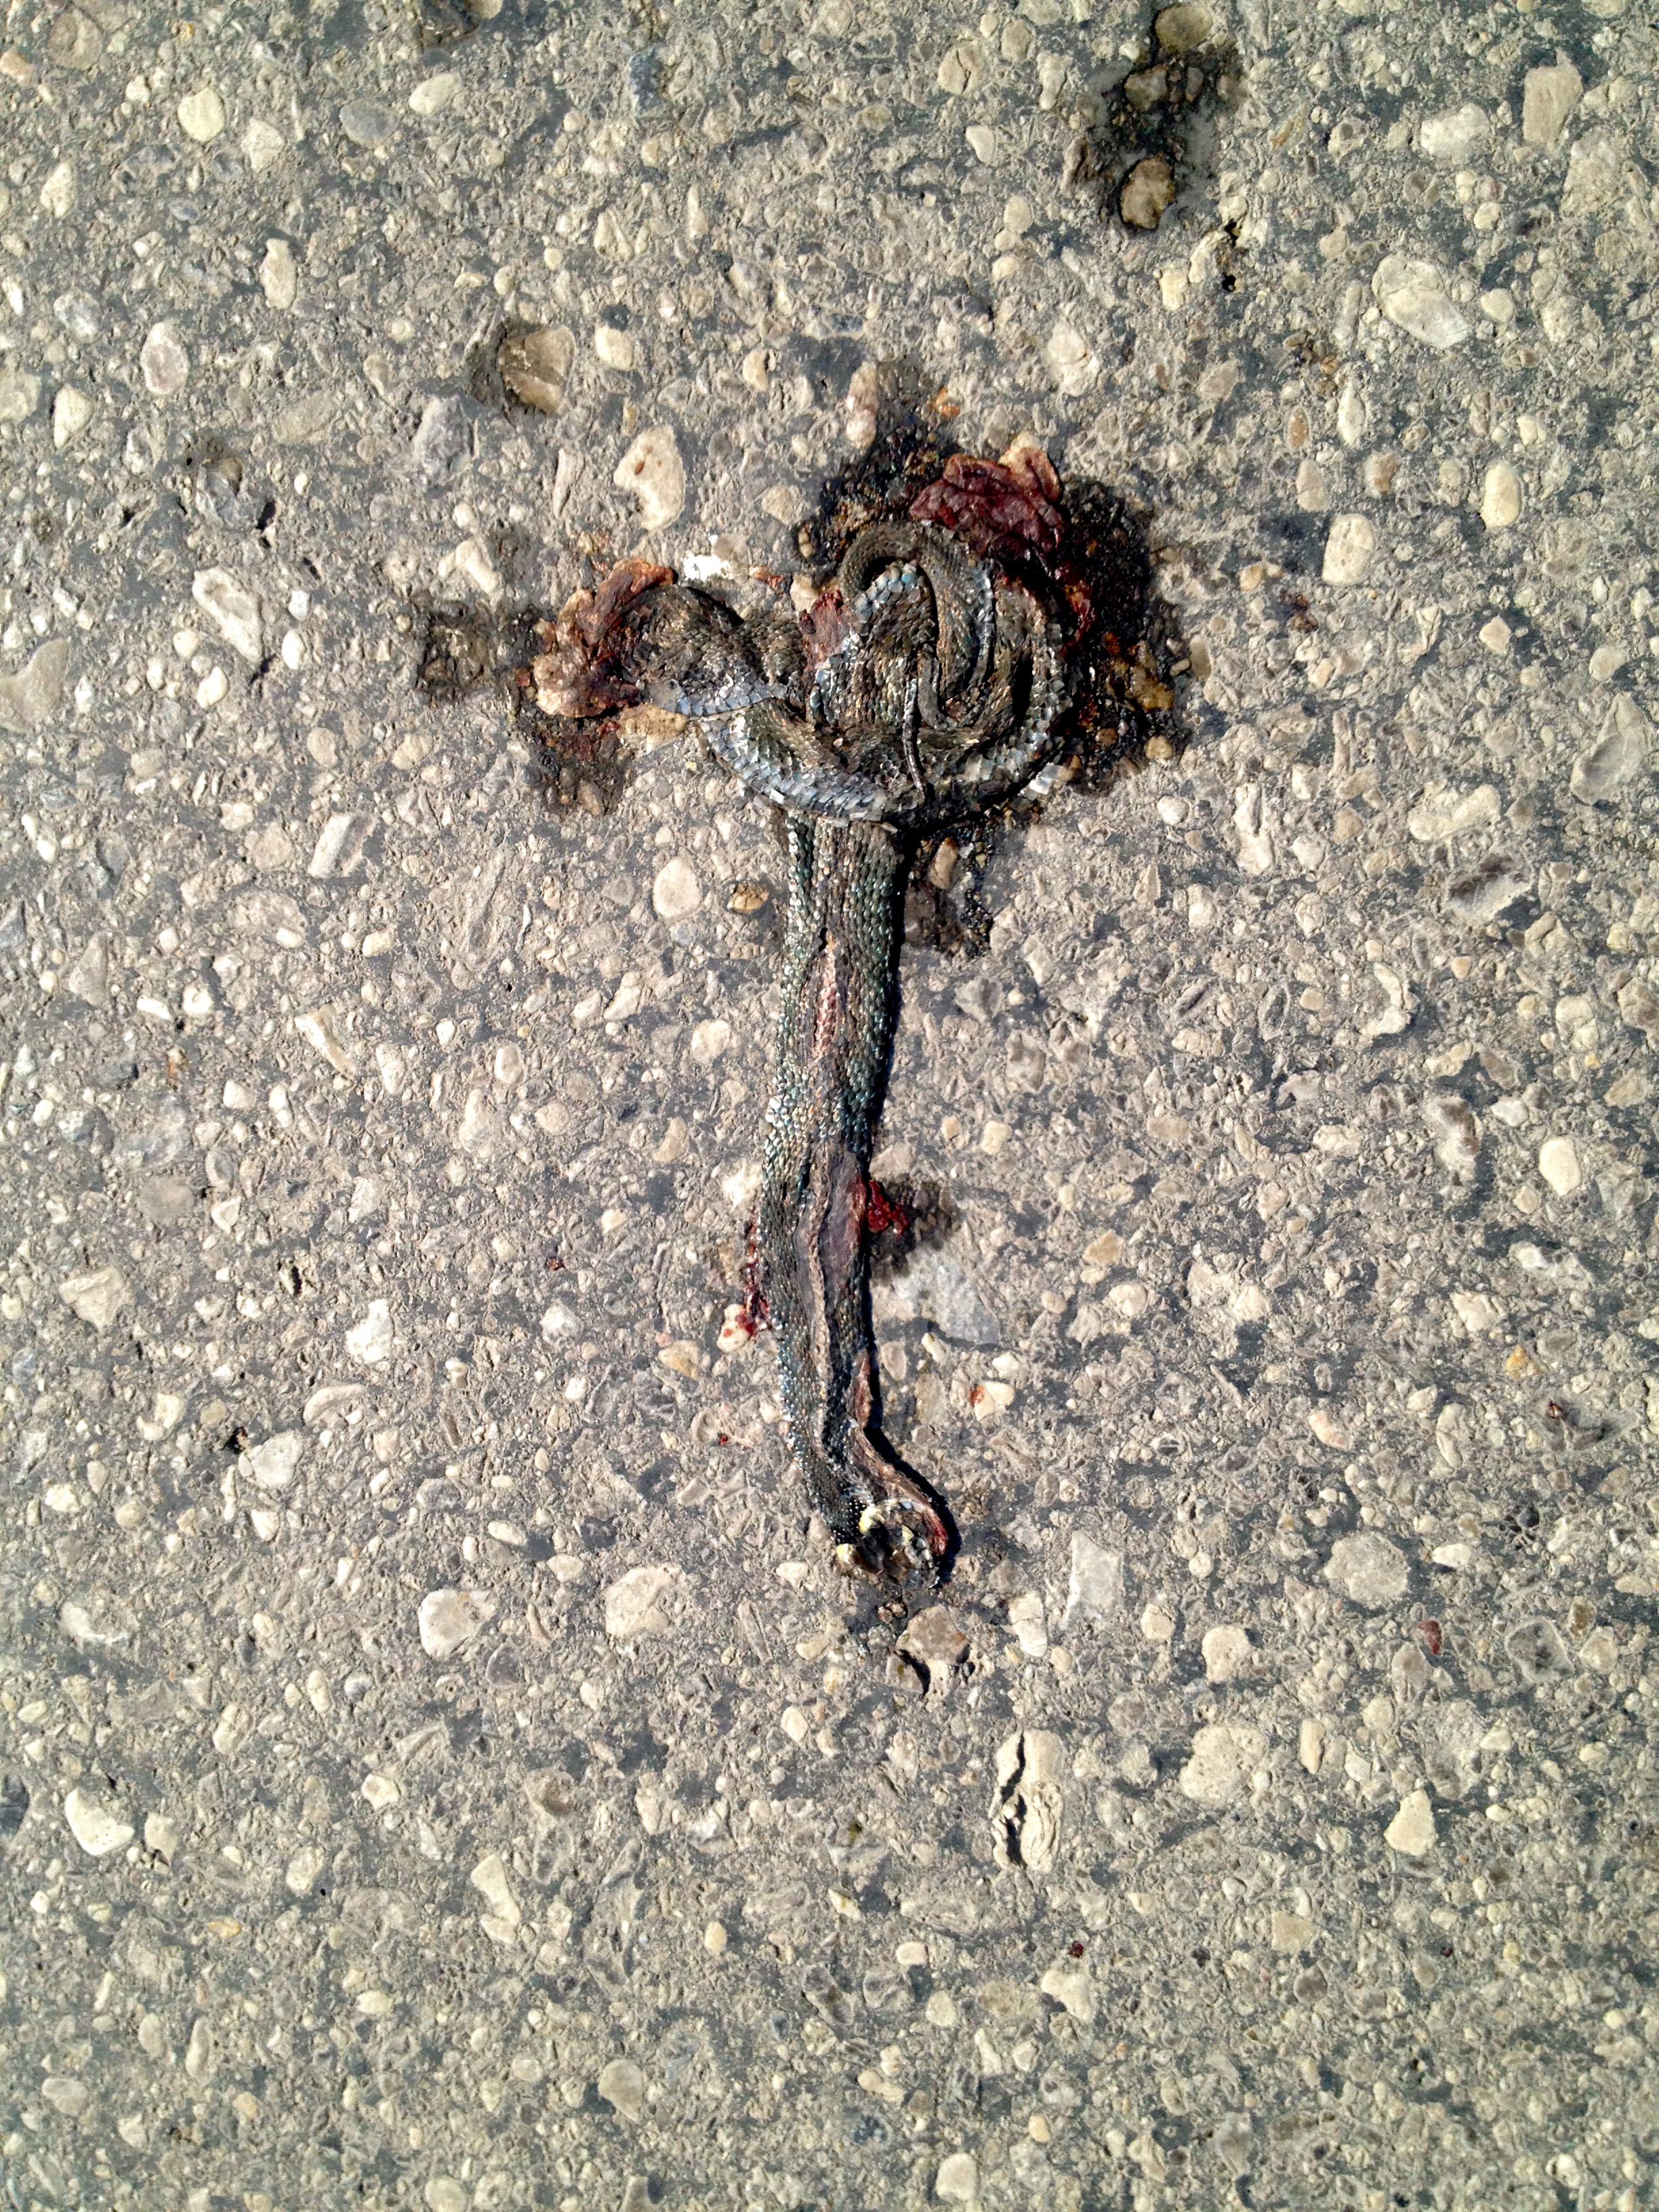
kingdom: Animalia
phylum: Chordata
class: Squamata
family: Colubridae
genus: Natrix
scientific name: Natrix natrix
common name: Grass snake
